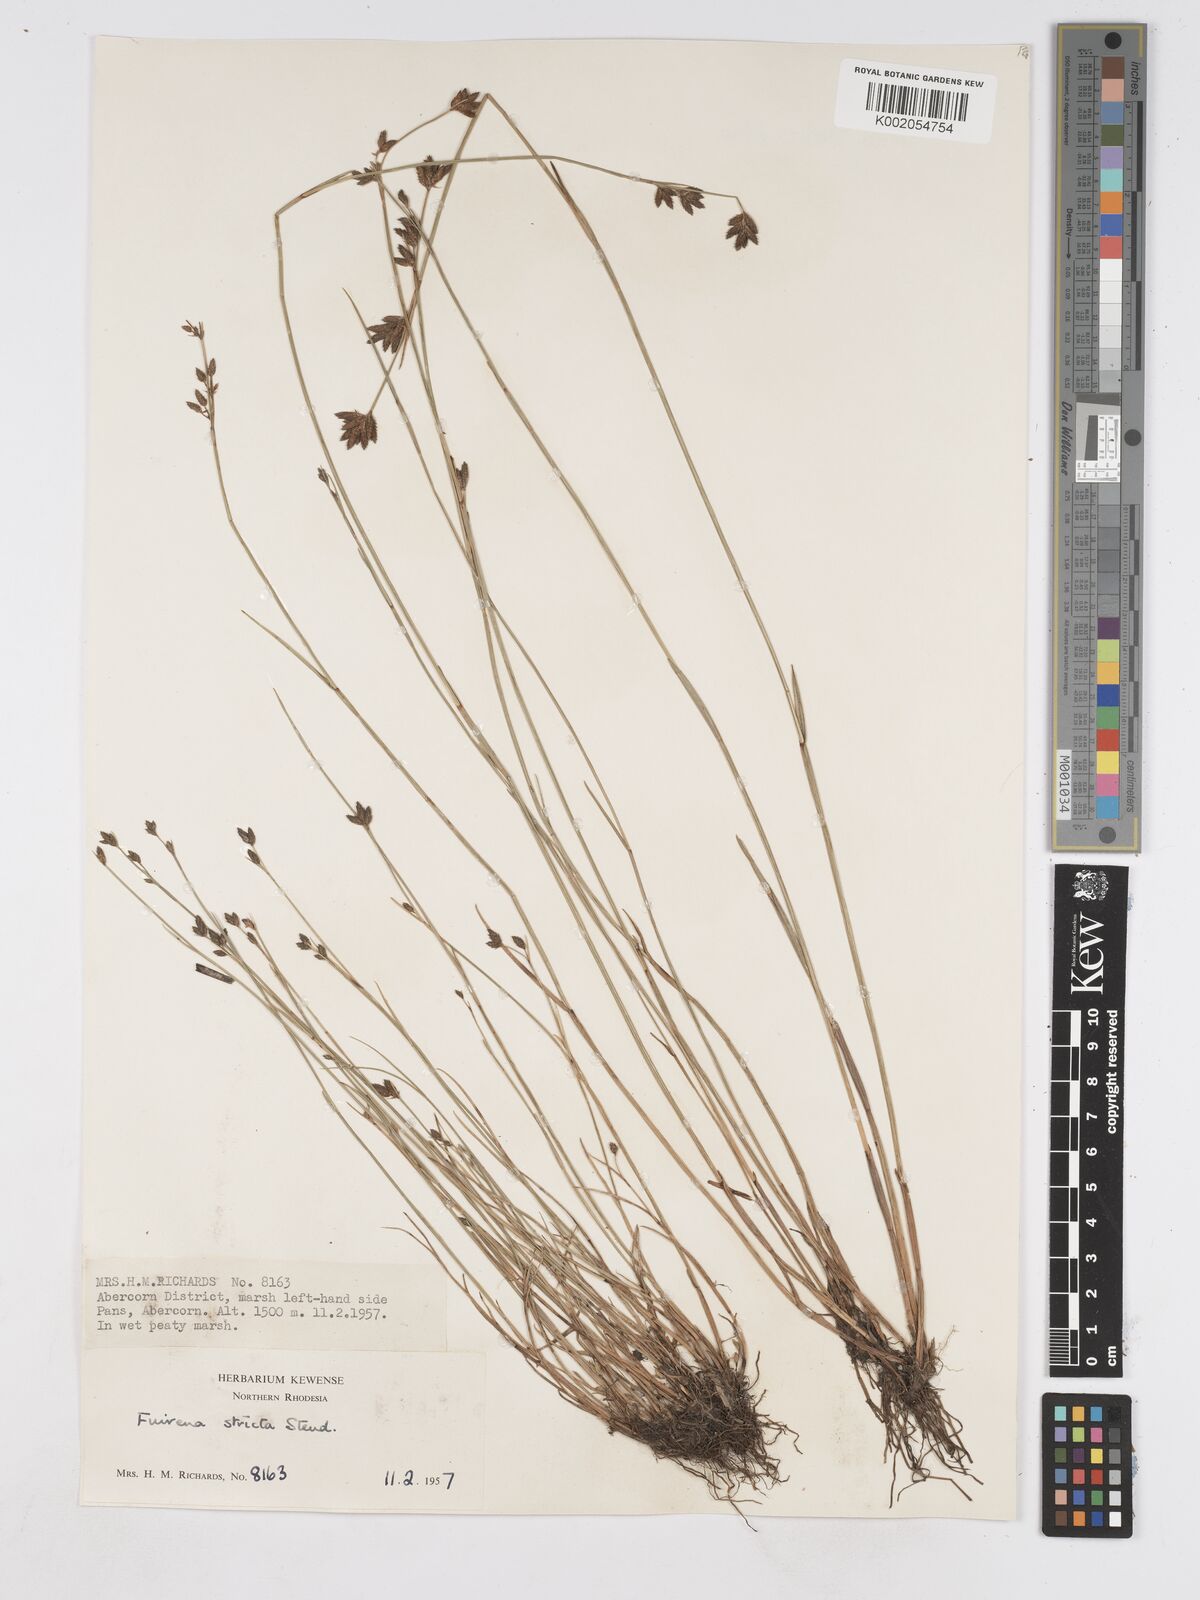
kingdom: Plantae
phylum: Tracheophyta
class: Liliopsida
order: Poales
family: Cyperaceae
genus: Fuirena
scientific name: Fuirena stricta
